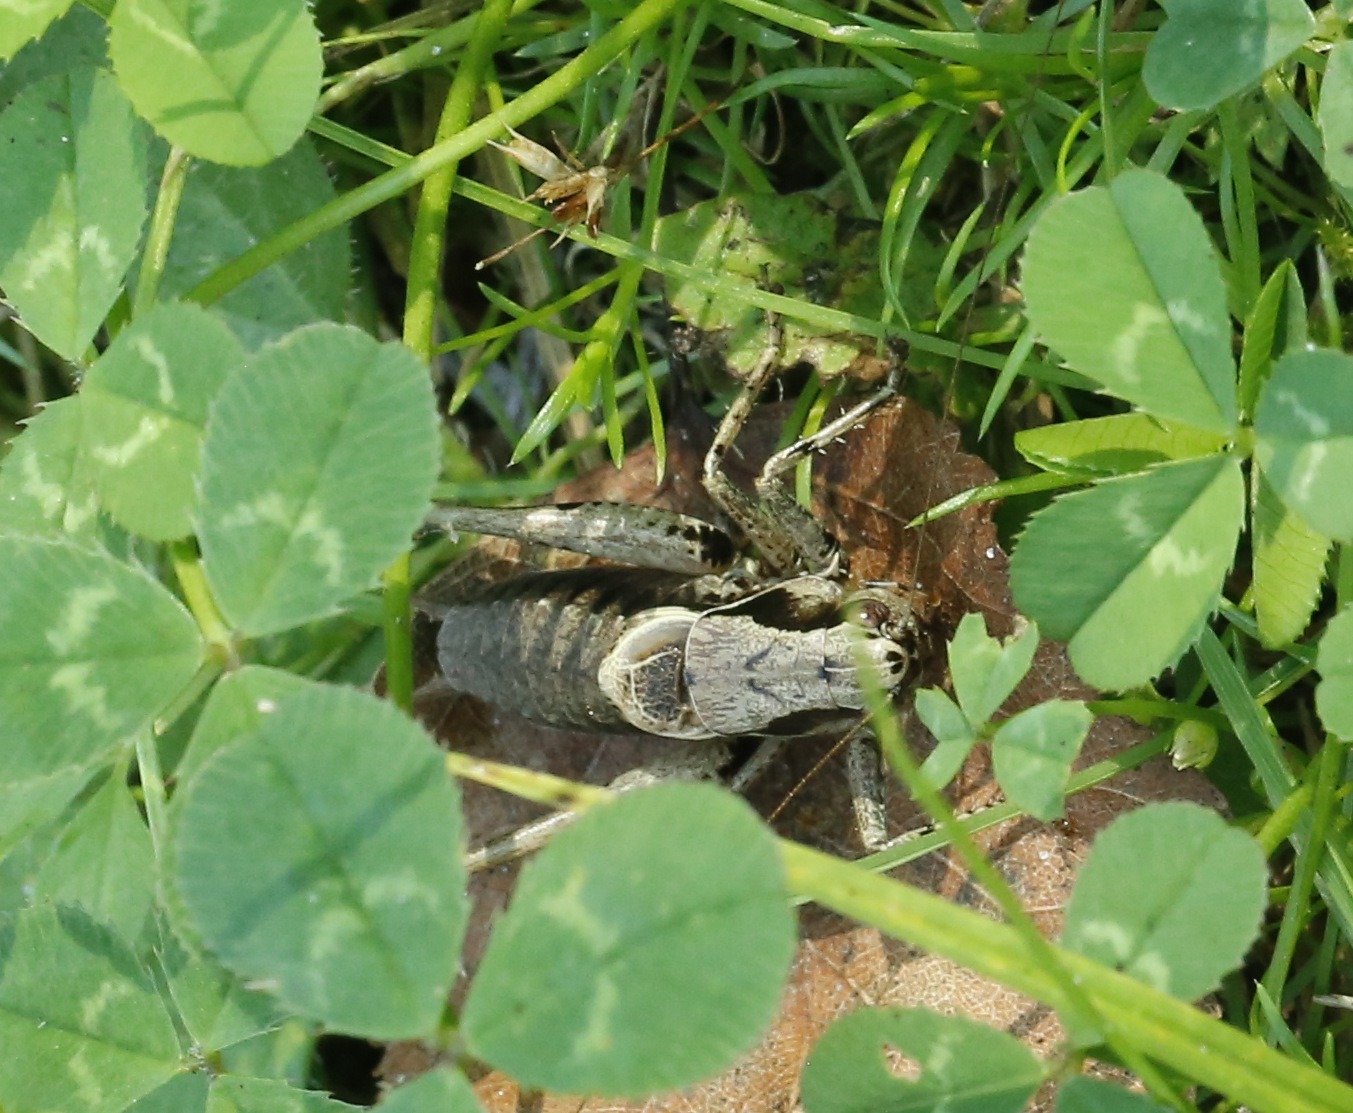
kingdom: Animalia
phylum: Arthropoda
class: Insecta
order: Orthoptera
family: Tettigoniidae
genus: Pholidoptera
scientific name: Pholidoptera griseoaptera
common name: Buskgræshoppe
